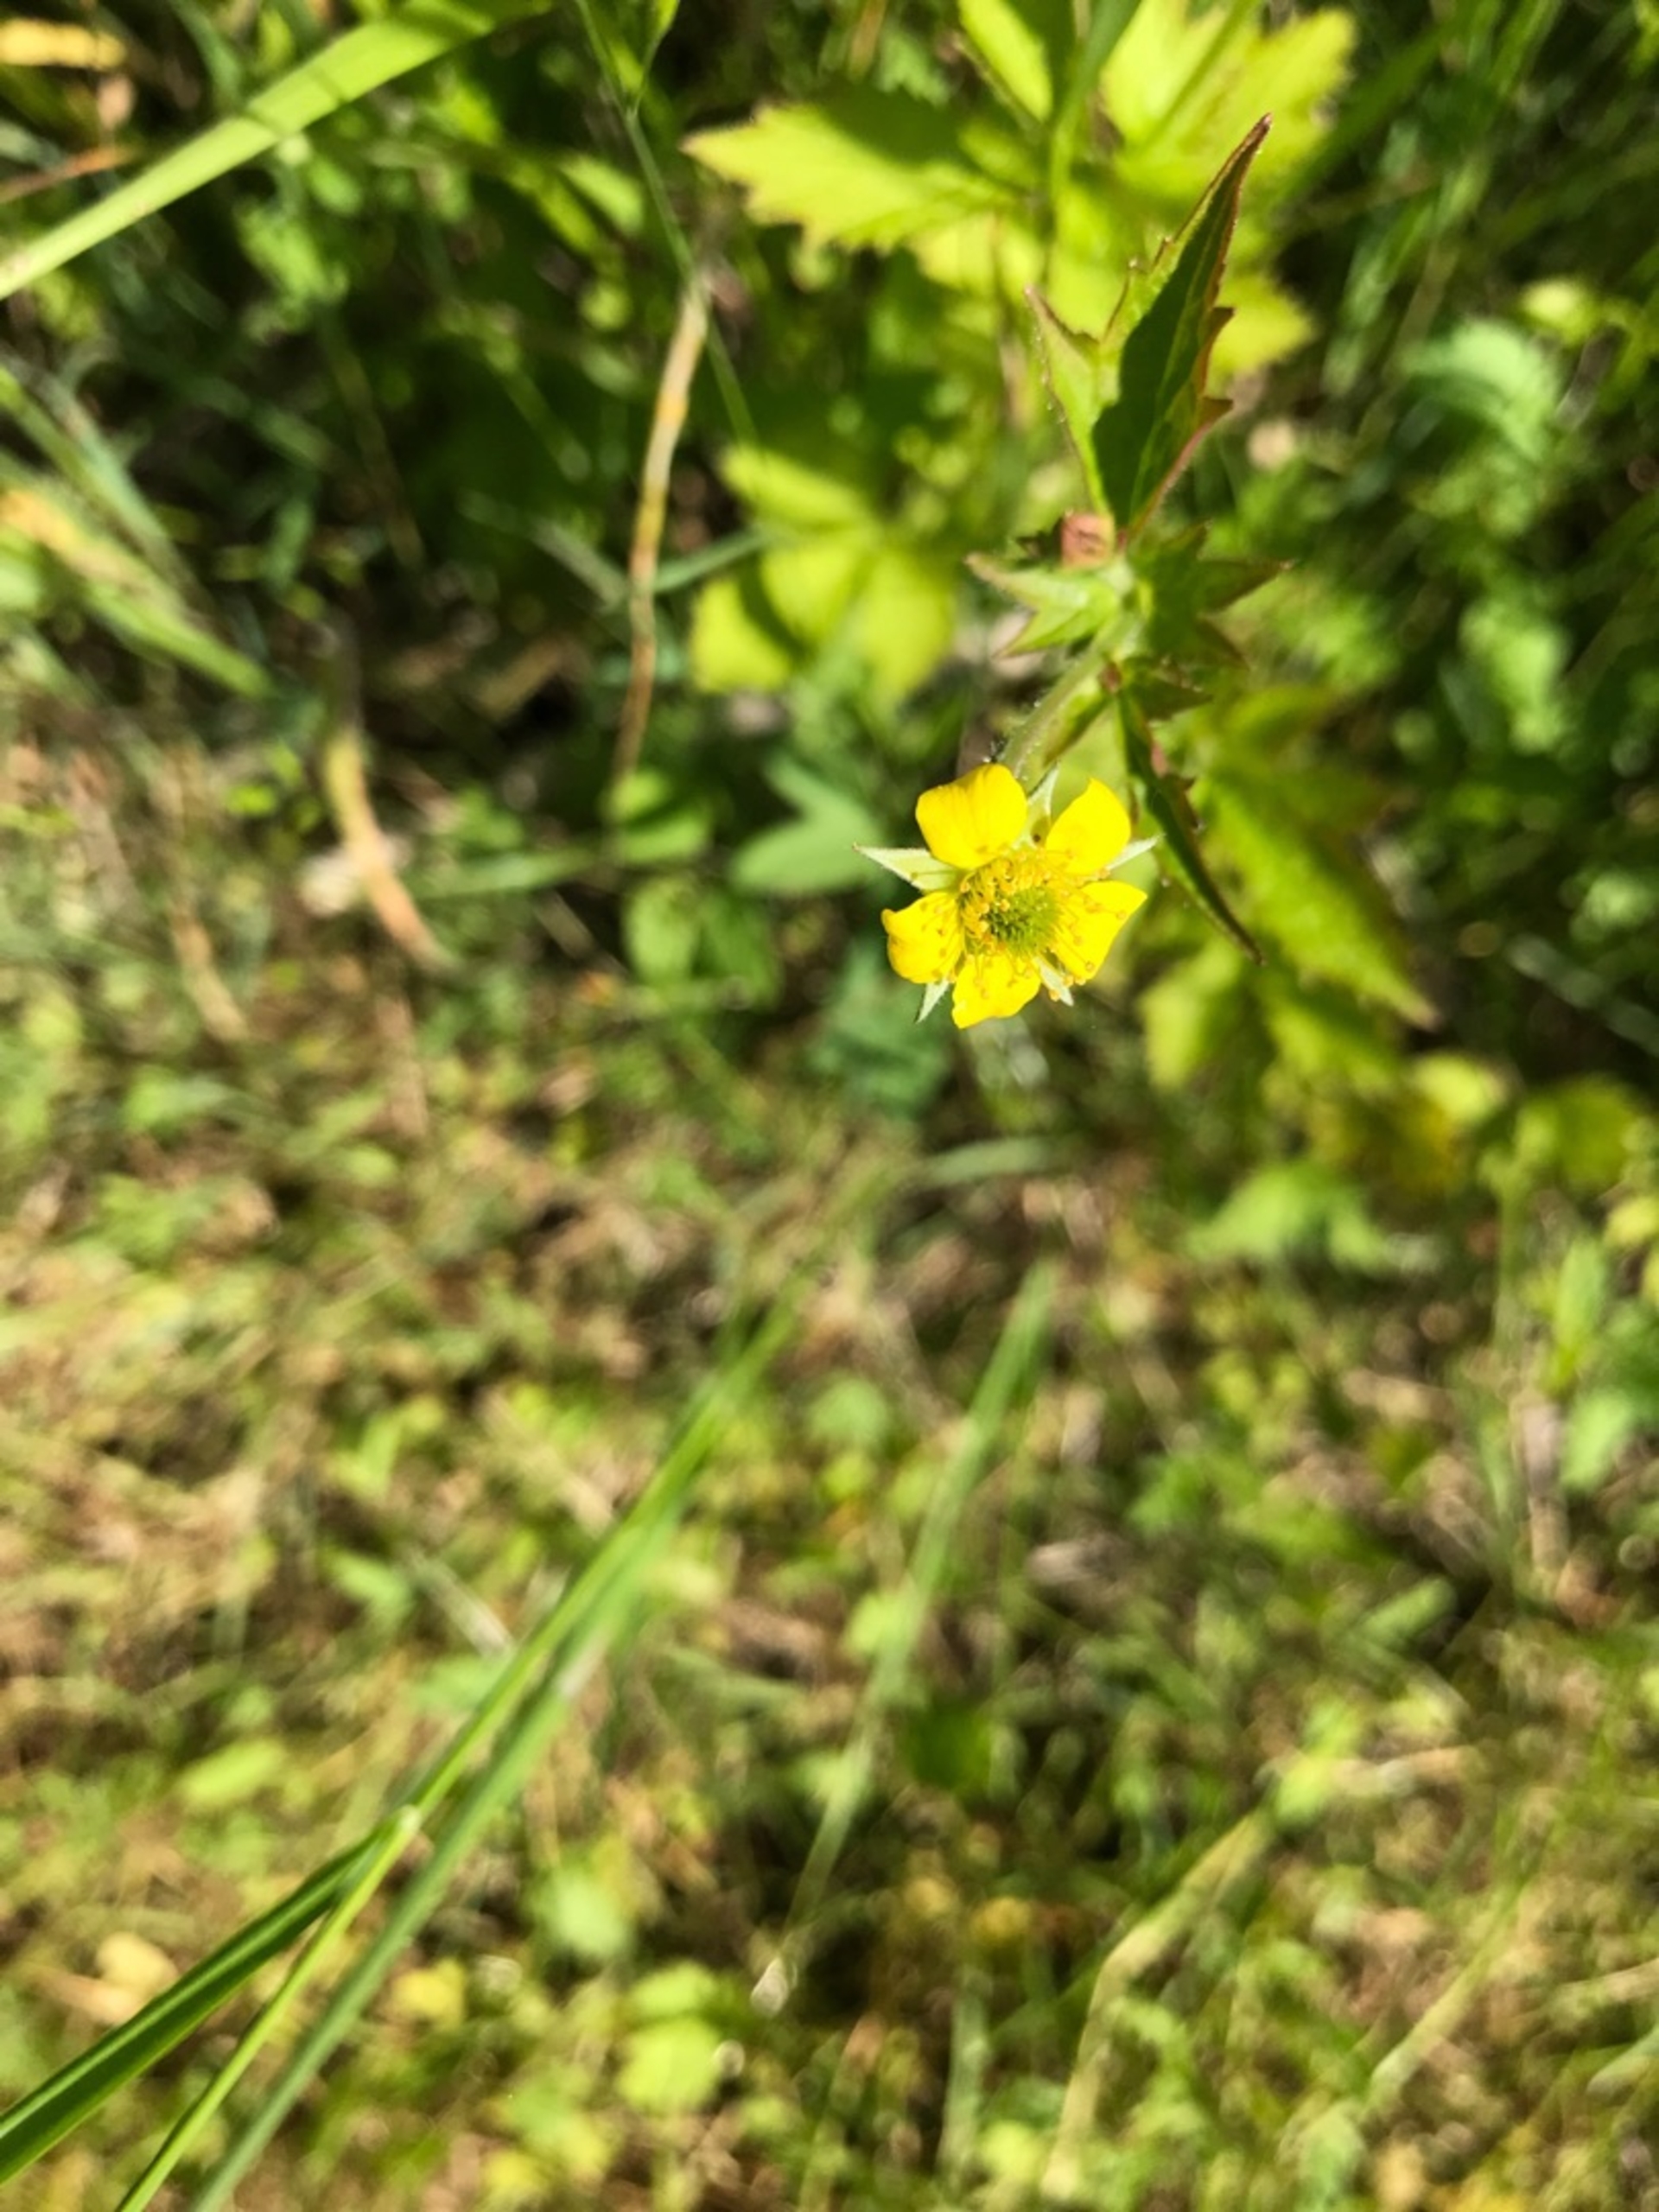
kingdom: Plantae
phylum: Tracheophyta
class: Magnoliopsida
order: Rosales
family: Rosaceae
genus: Geum
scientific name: Geum urbanum
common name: Feber-nellikerod
